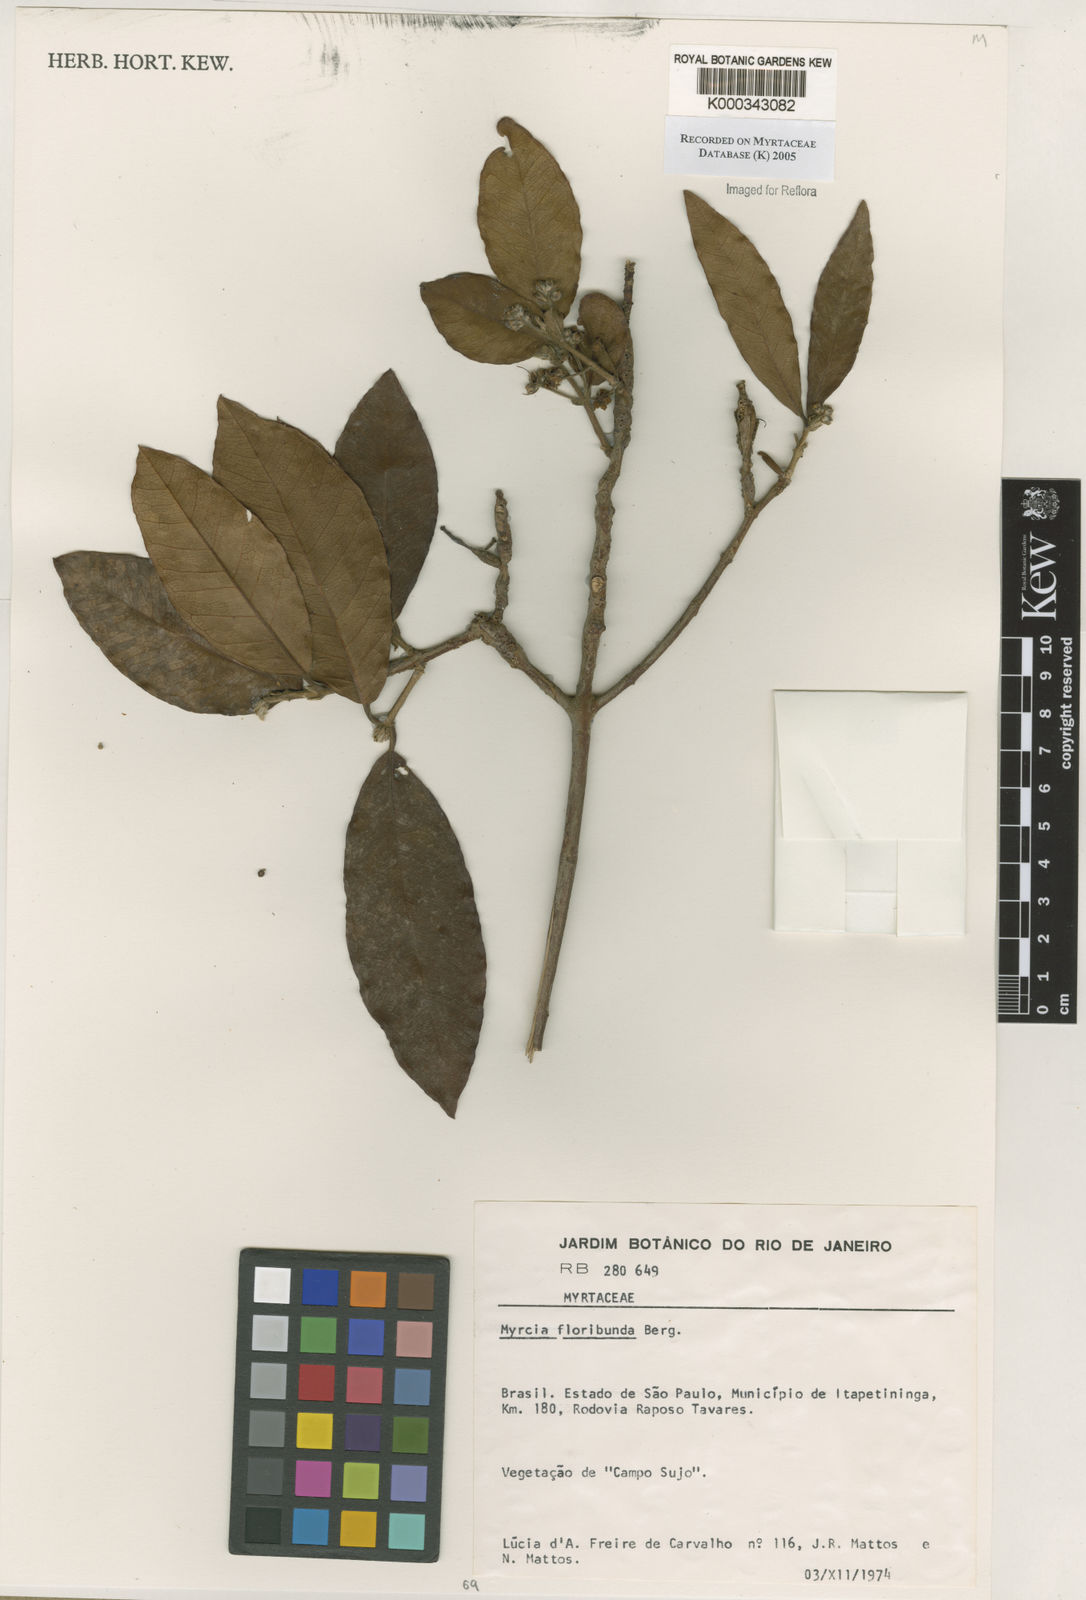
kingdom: Plantae
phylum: Tracheophyta
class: Magnoliopsida
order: Myrtales
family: Myrtaceae
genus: Myrcia
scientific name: Myrcia tomentosa
